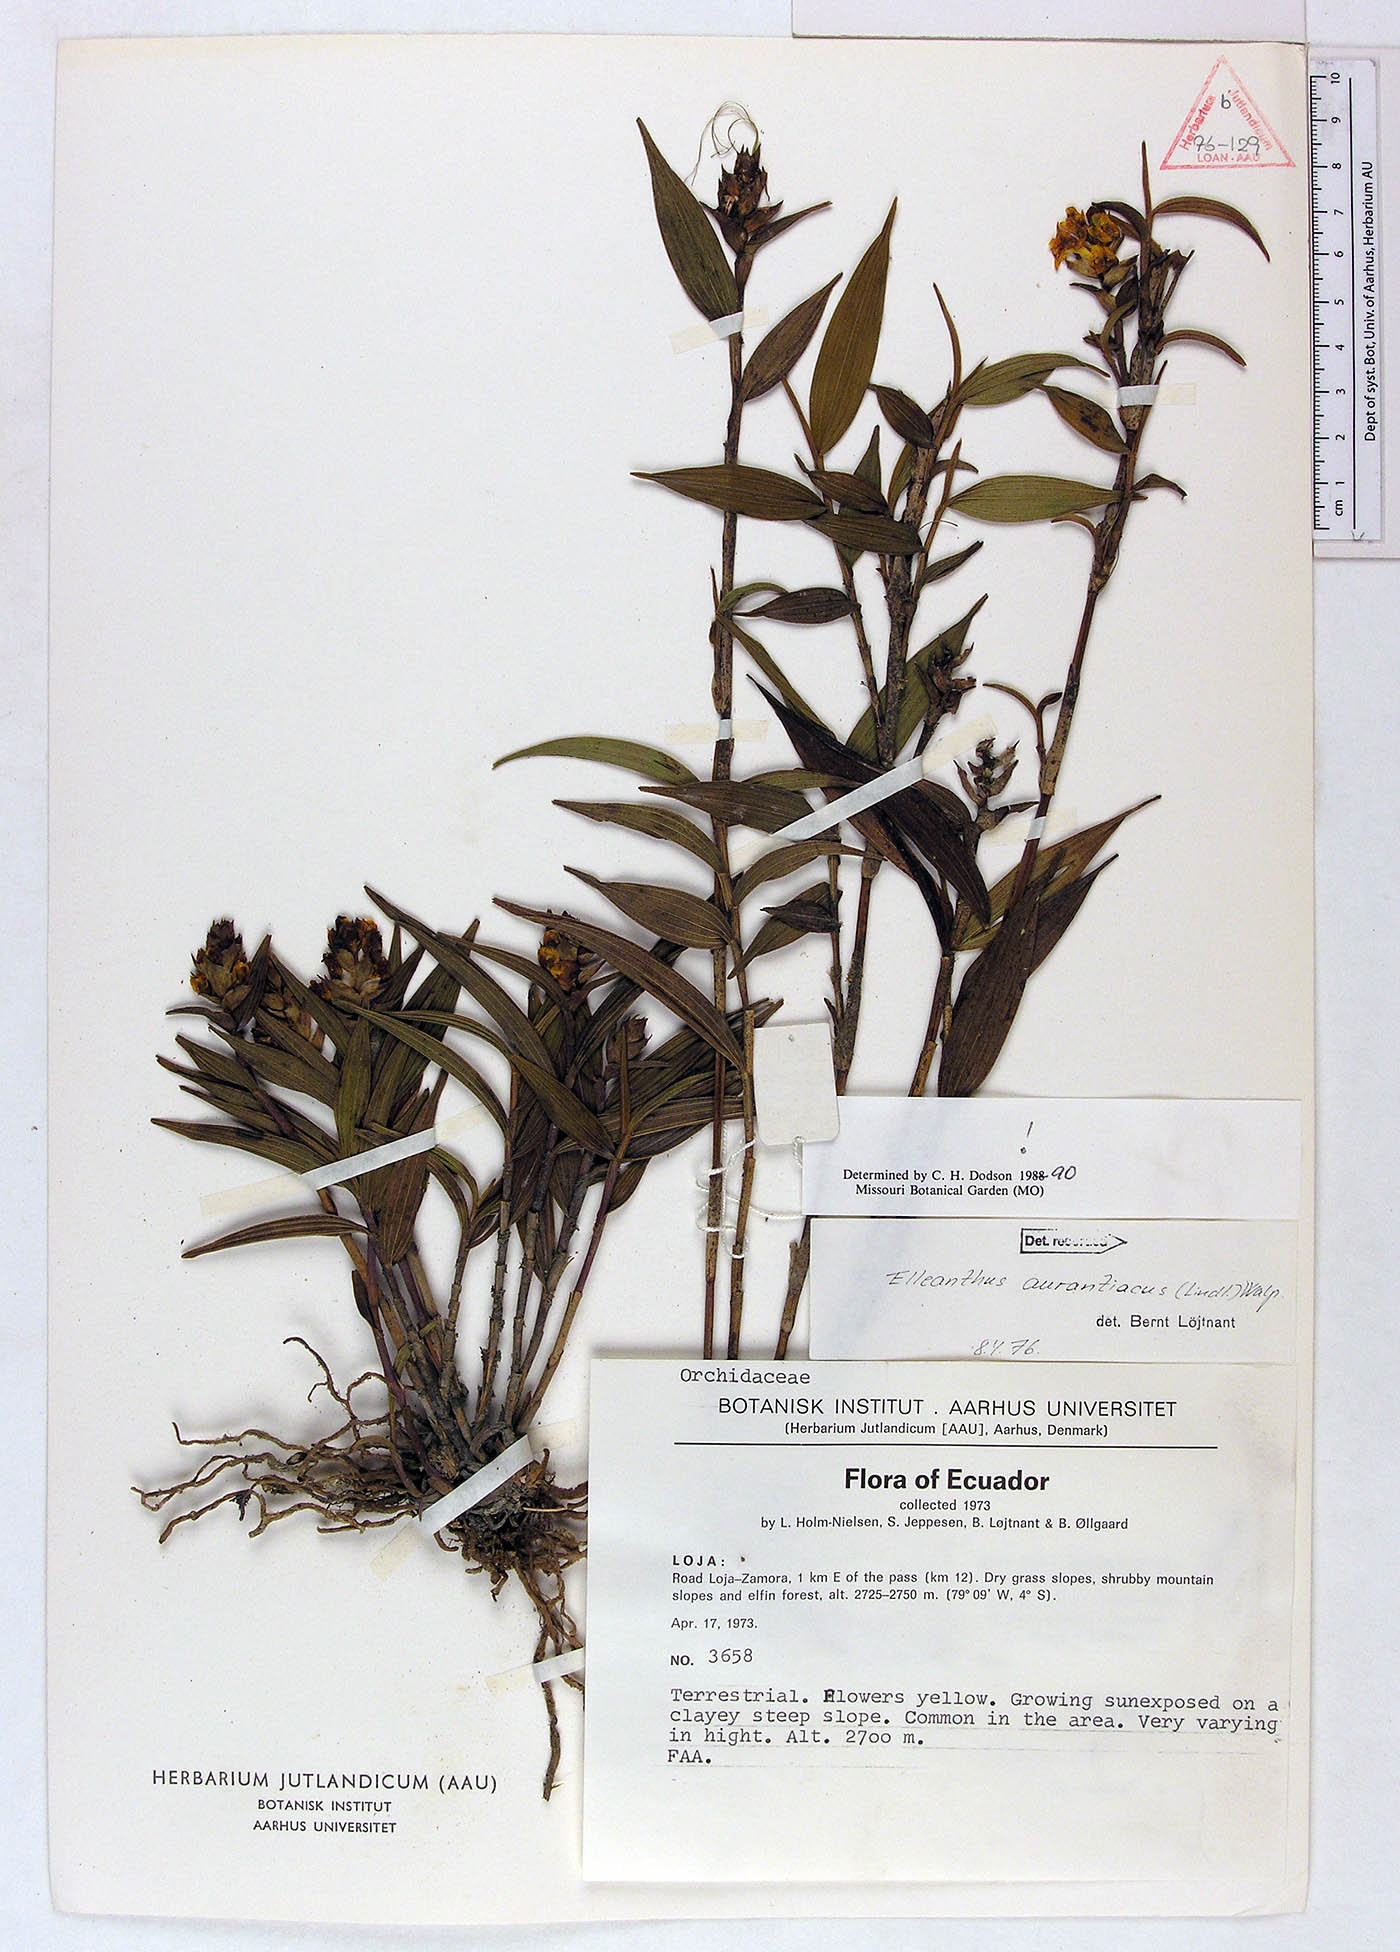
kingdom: Plantae
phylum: Tracheophyta
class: Liliopsida
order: Asparagales
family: Orchidaceae
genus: Elleanthus
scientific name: Elleanthus aurantiacus
